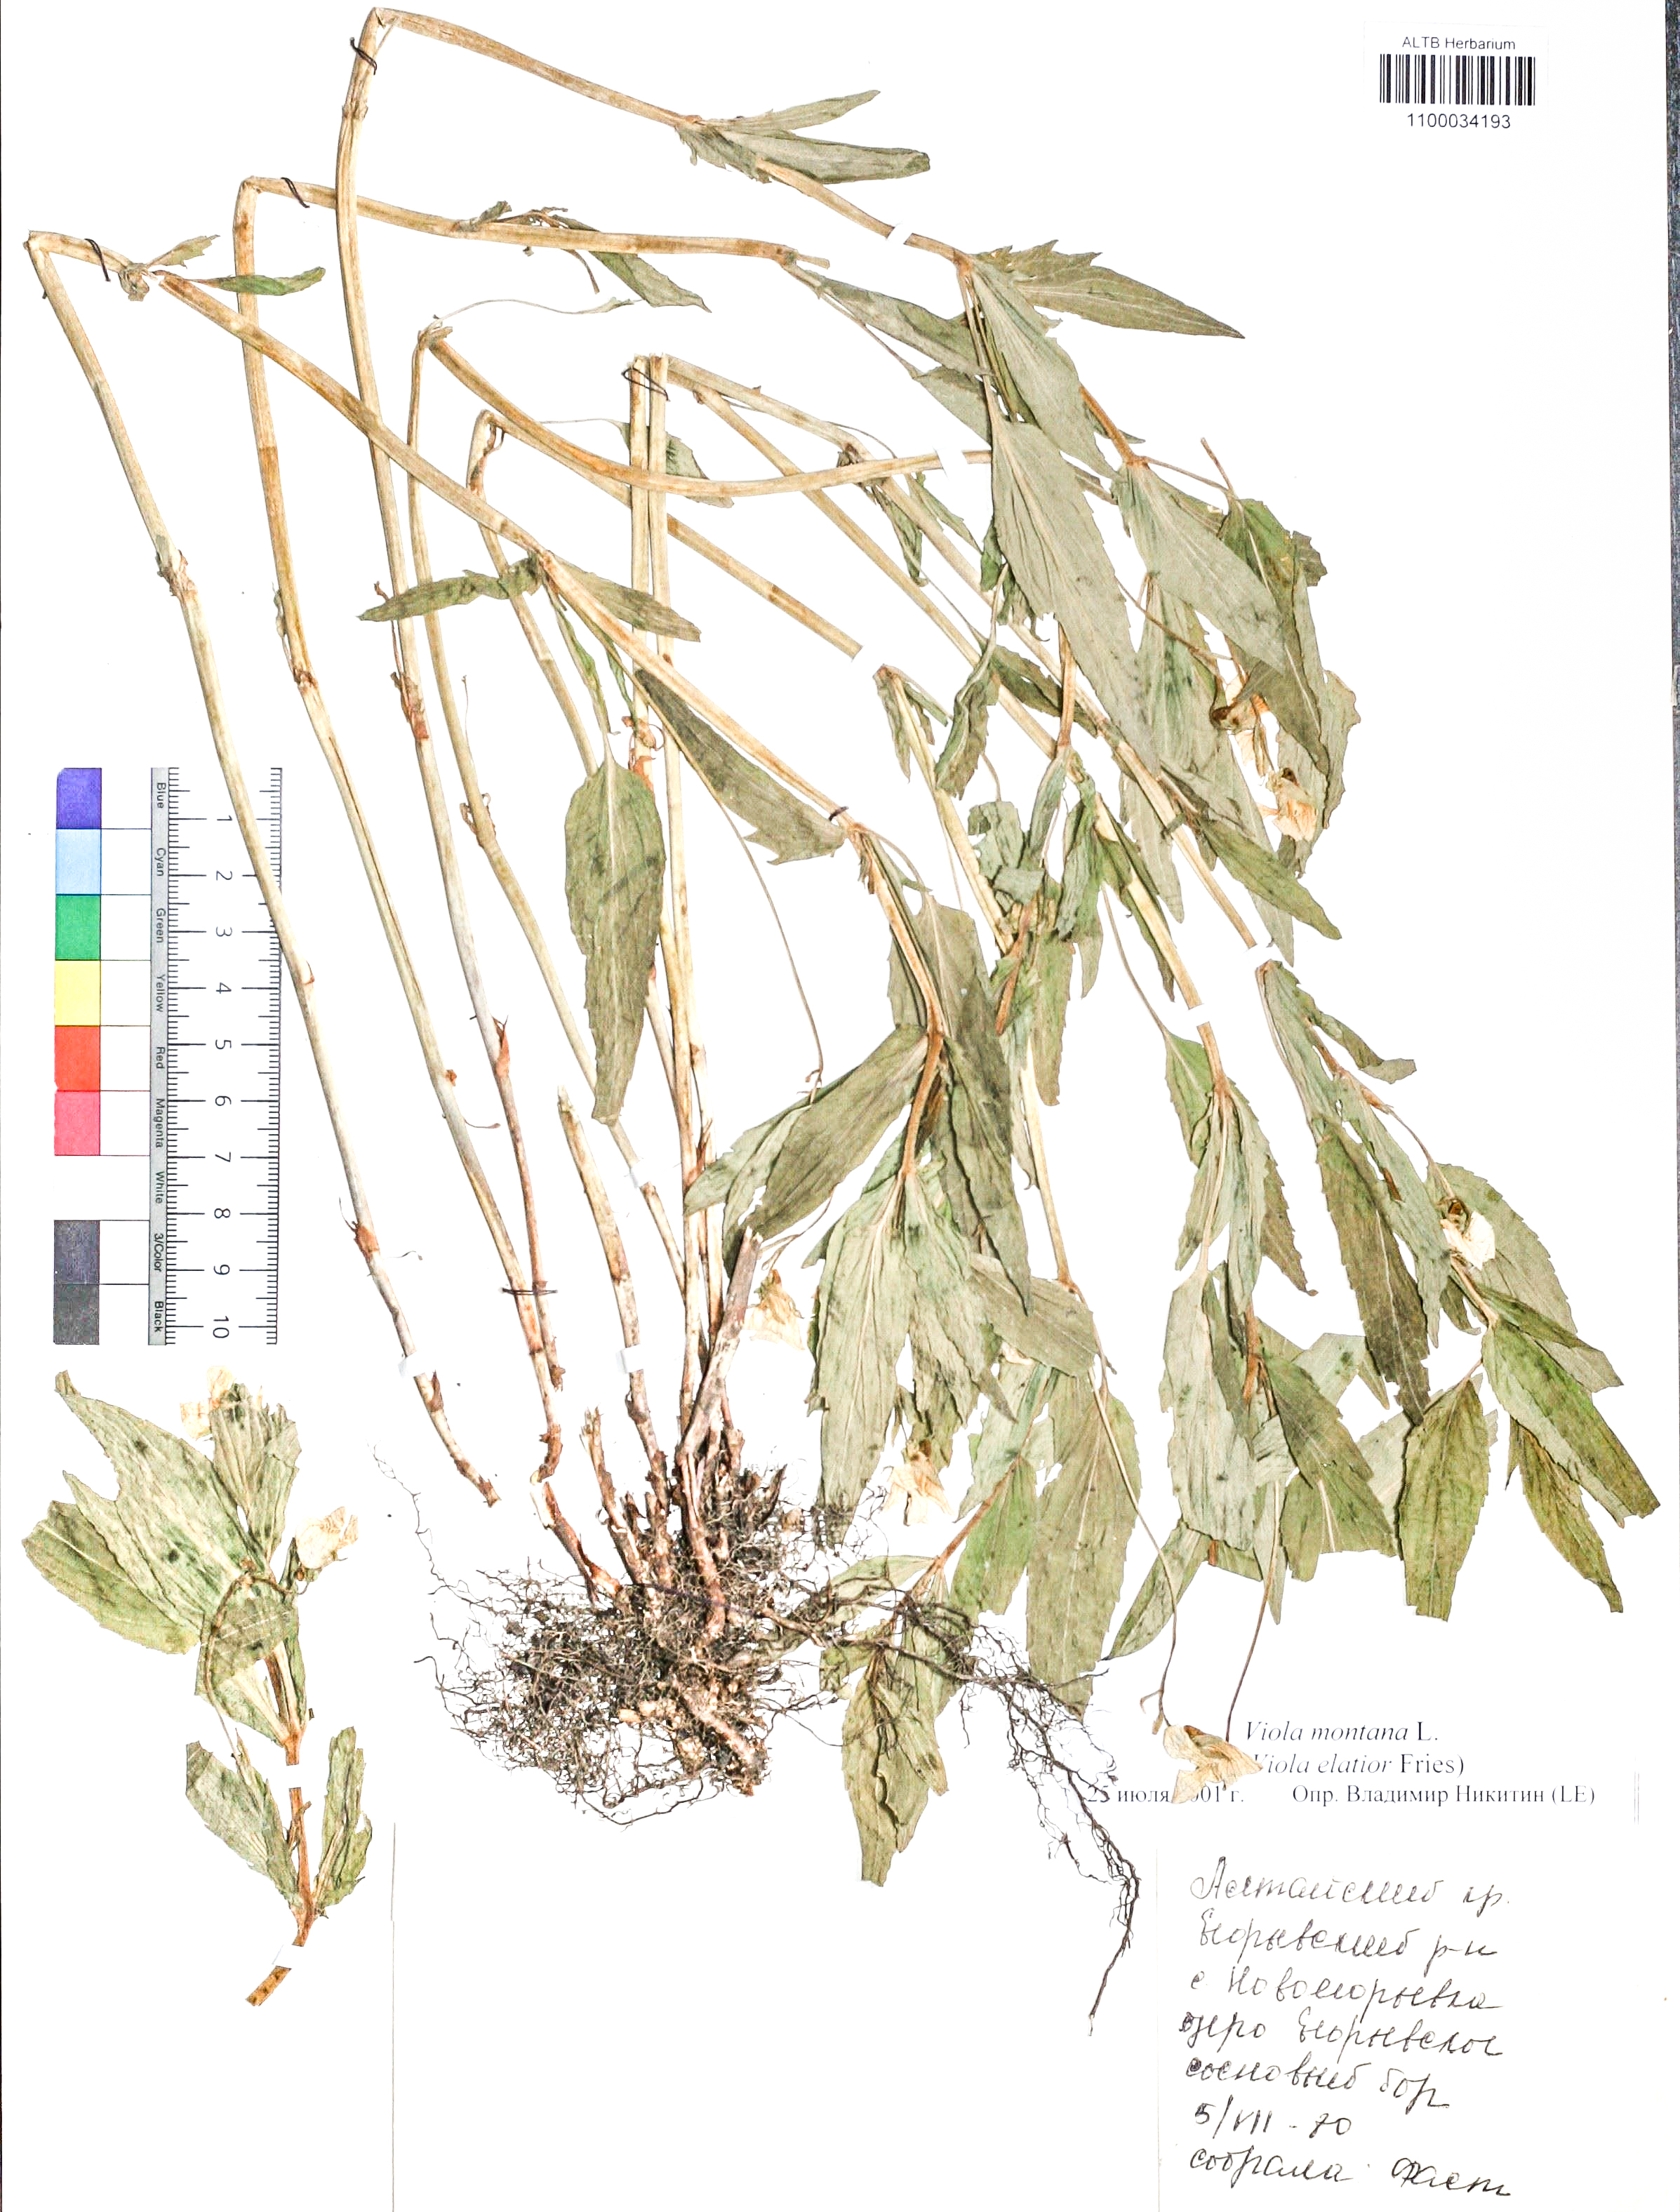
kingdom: Plantae
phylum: Tracheophyta
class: Magnoliopsida
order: Malpighiales
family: Violaceae
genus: Viola
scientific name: Viola ruppii
